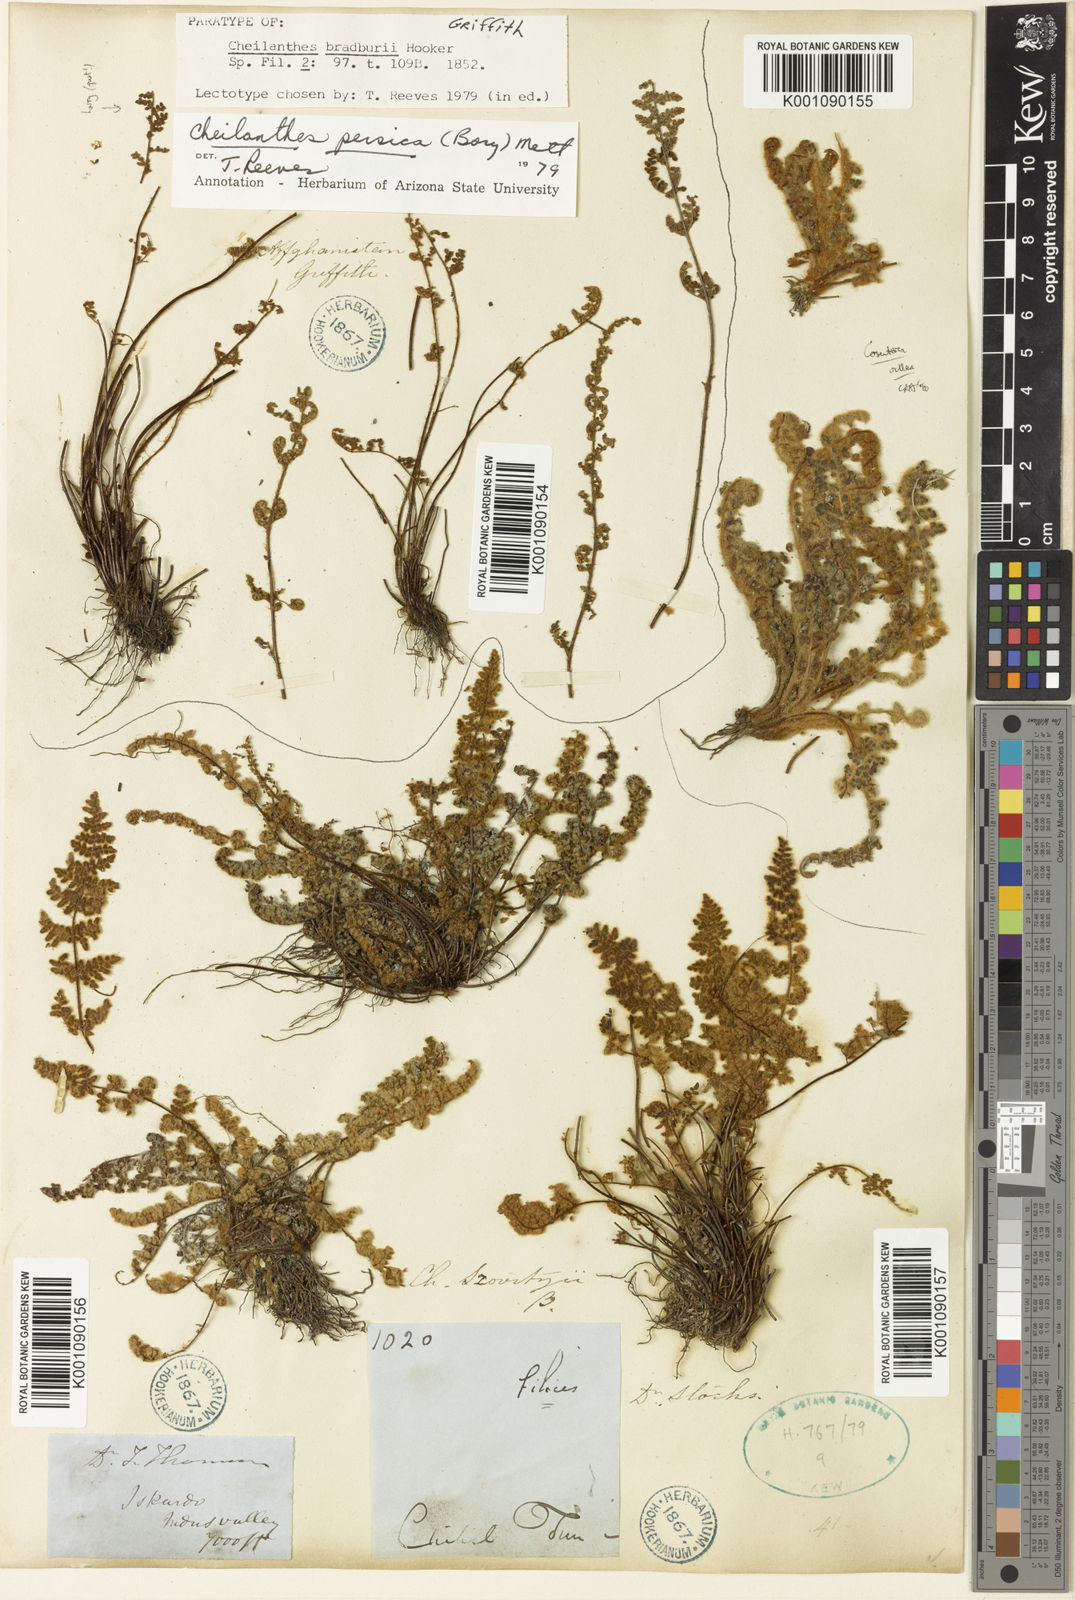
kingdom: Plantae
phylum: Tracheophyta
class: Polypodiopsida
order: Polypodiales
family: Pteridaceae
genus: Oeosporangium
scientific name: Oeosporangium persicum
